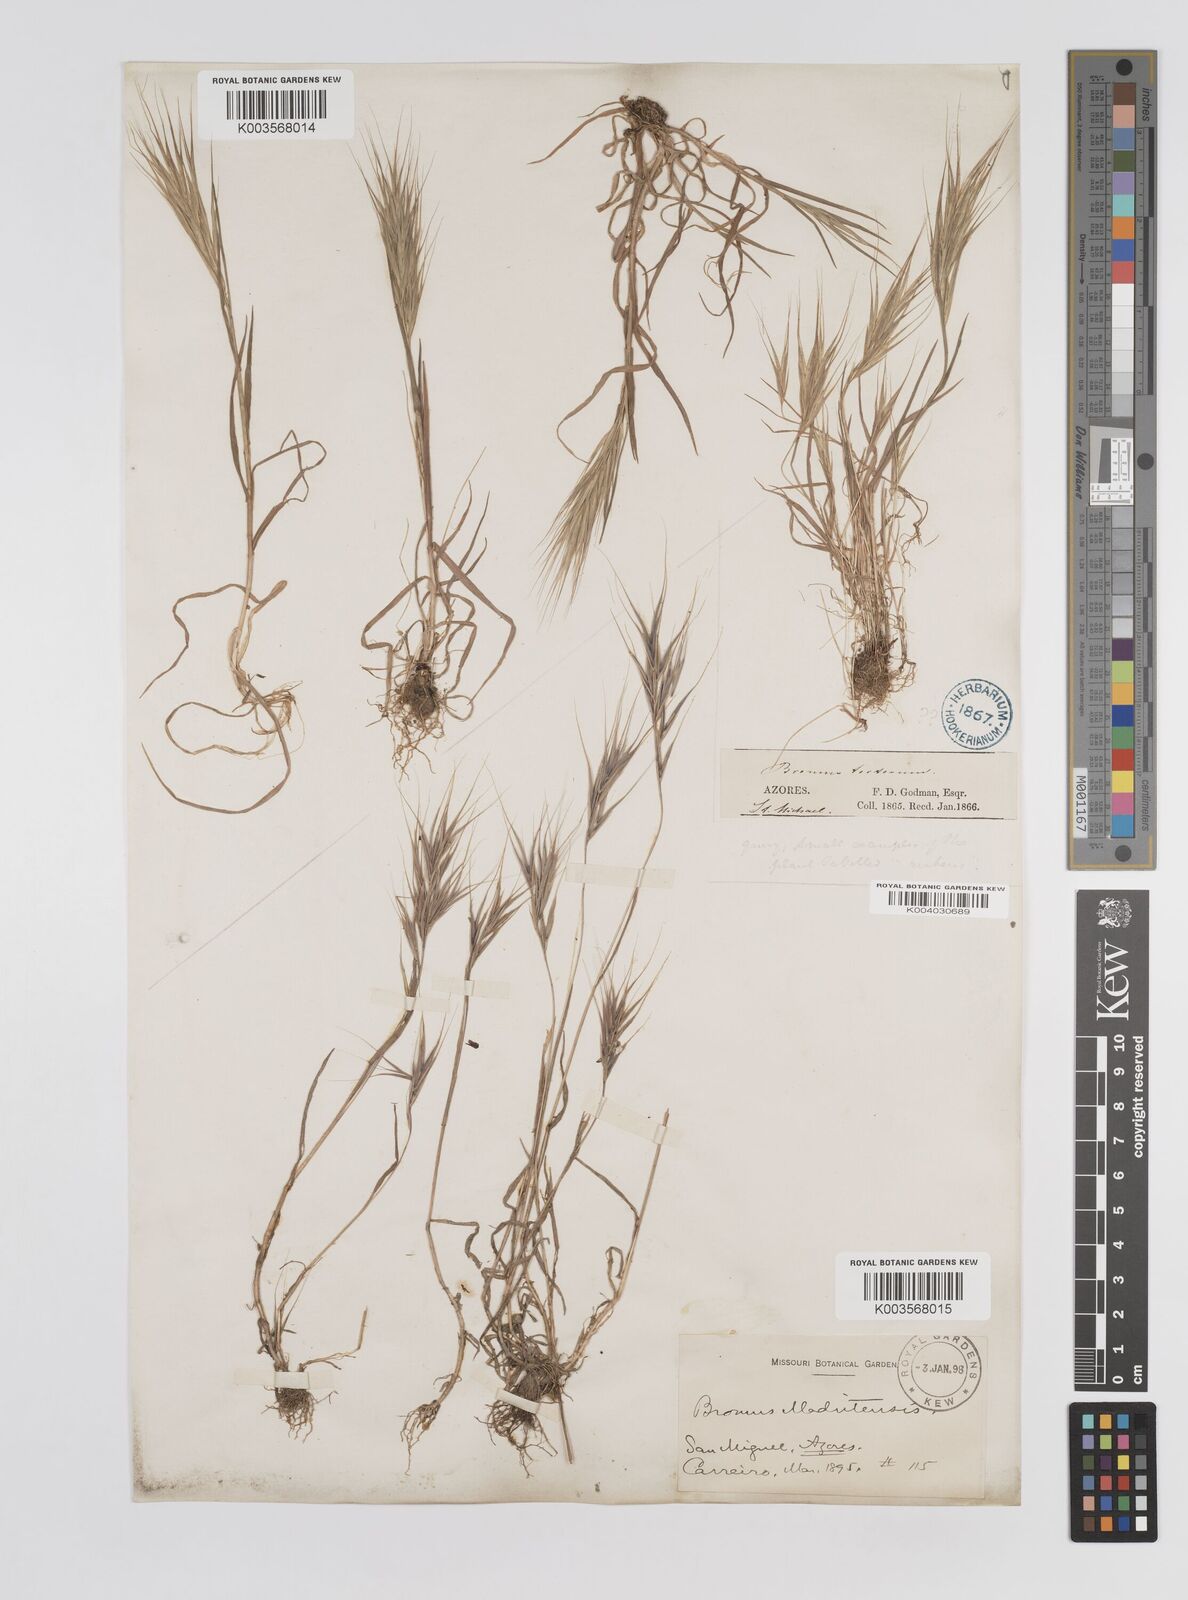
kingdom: Plantae
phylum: Tracheophyta
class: Liliopsida
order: Poales
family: Poaceae
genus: Bromus
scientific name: Bromus
